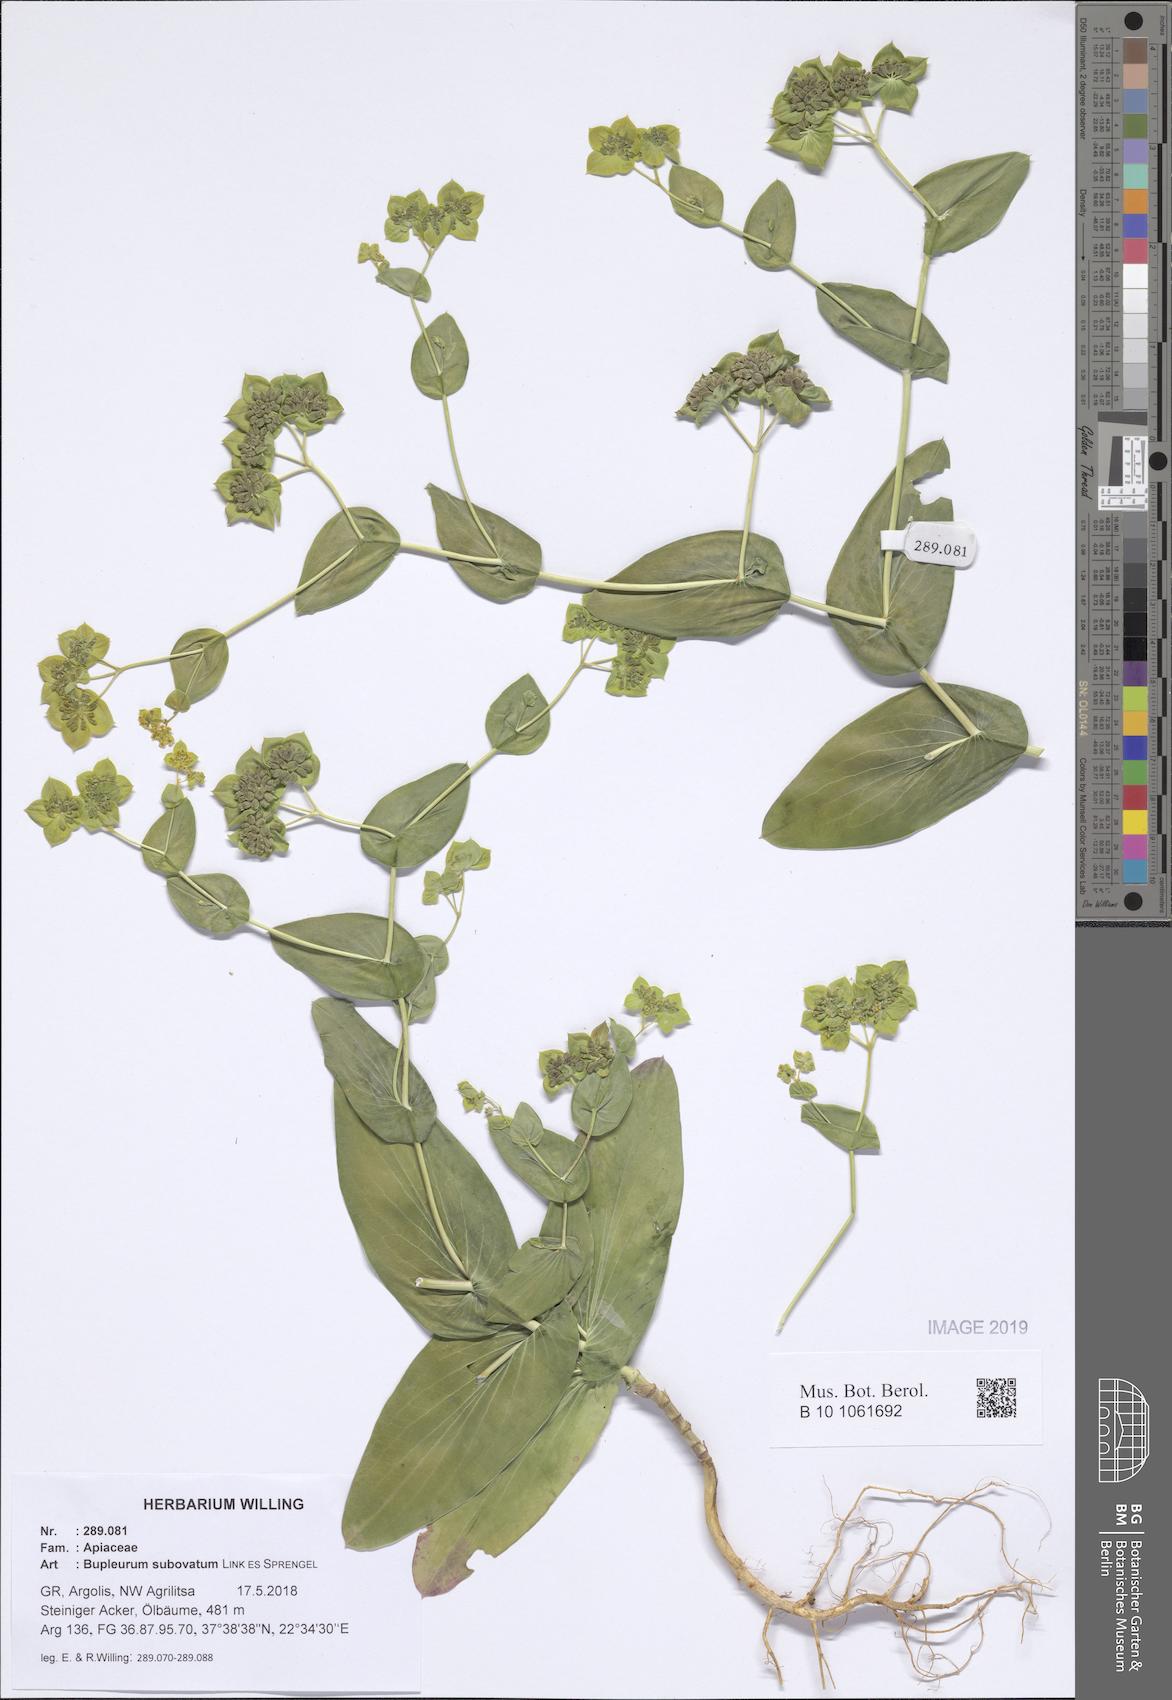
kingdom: Plantae
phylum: Tracheophyta
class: Magnoliopsida
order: Apiales
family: Apiaceae
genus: Bupleurum
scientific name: Bupleurum subovatum
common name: False thorow-wax
